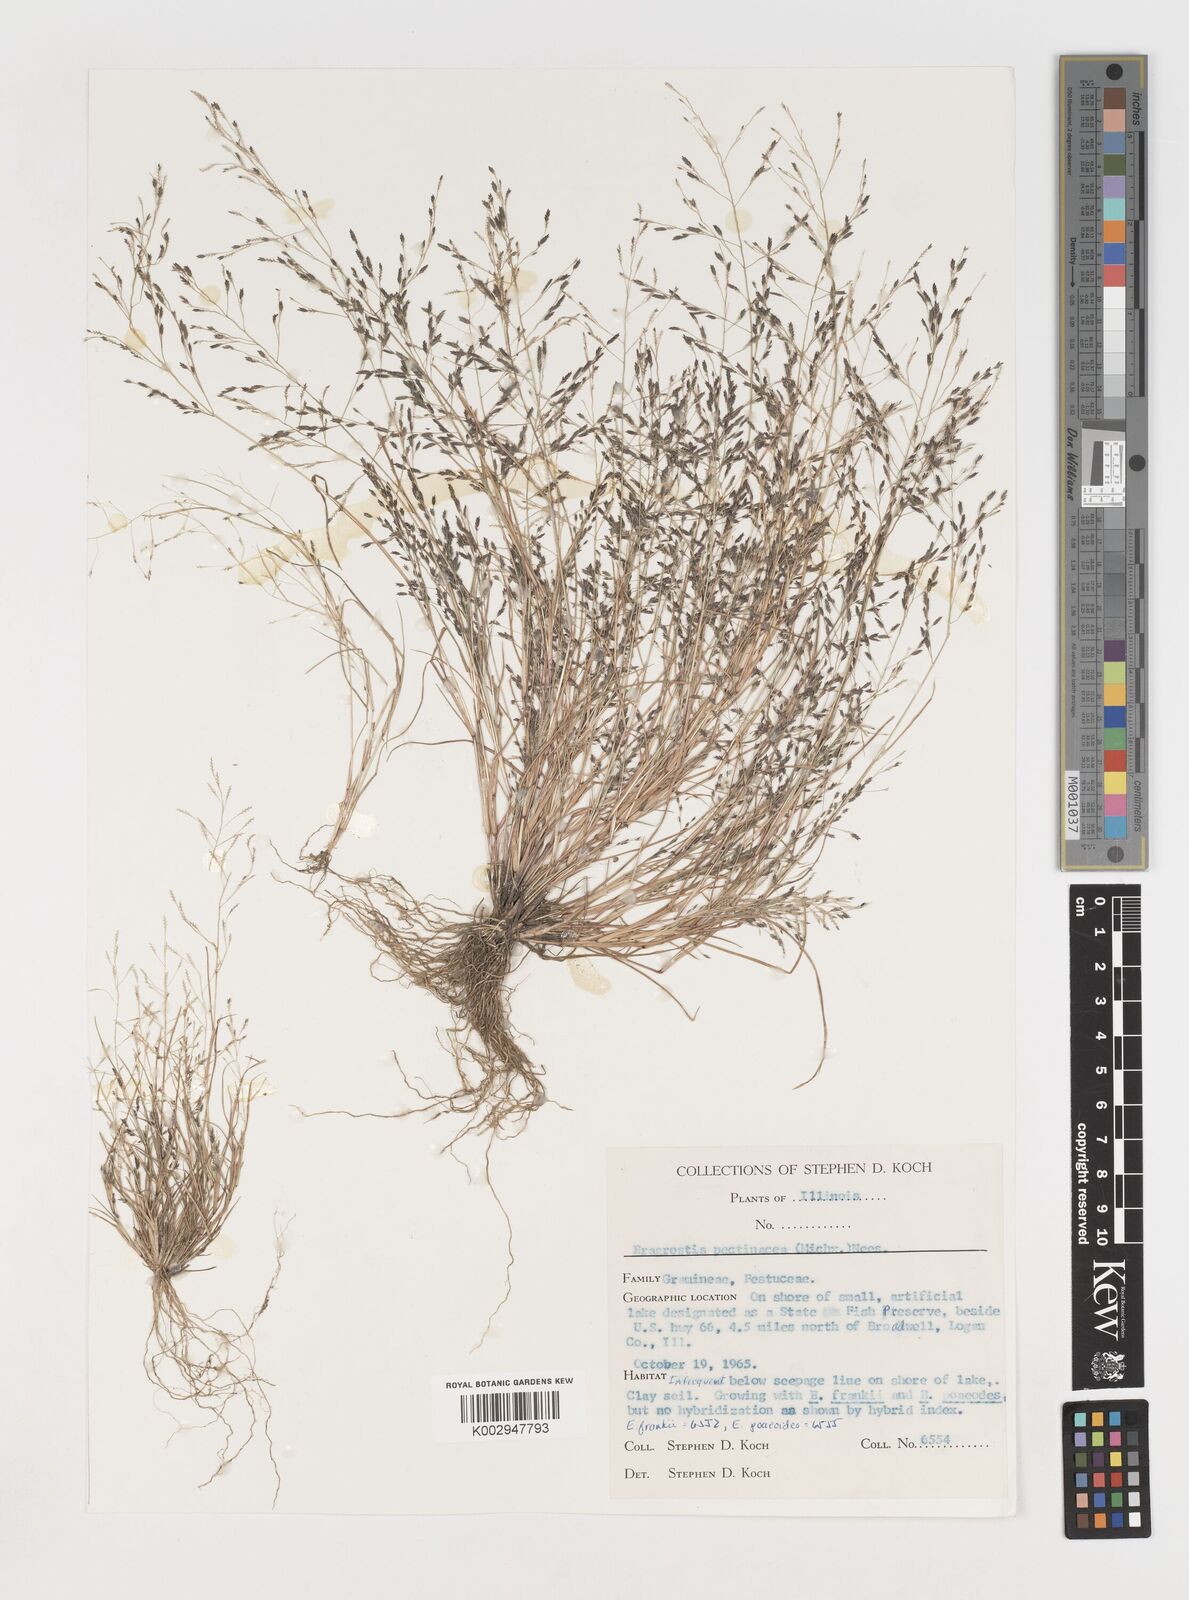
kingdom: Plantae
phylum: Tracheophyta
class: Liliopsida
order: Poales
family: Poaceae
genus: Eragrostis
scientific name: Eragrostis pectinacea
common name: Tufted lovegrass
